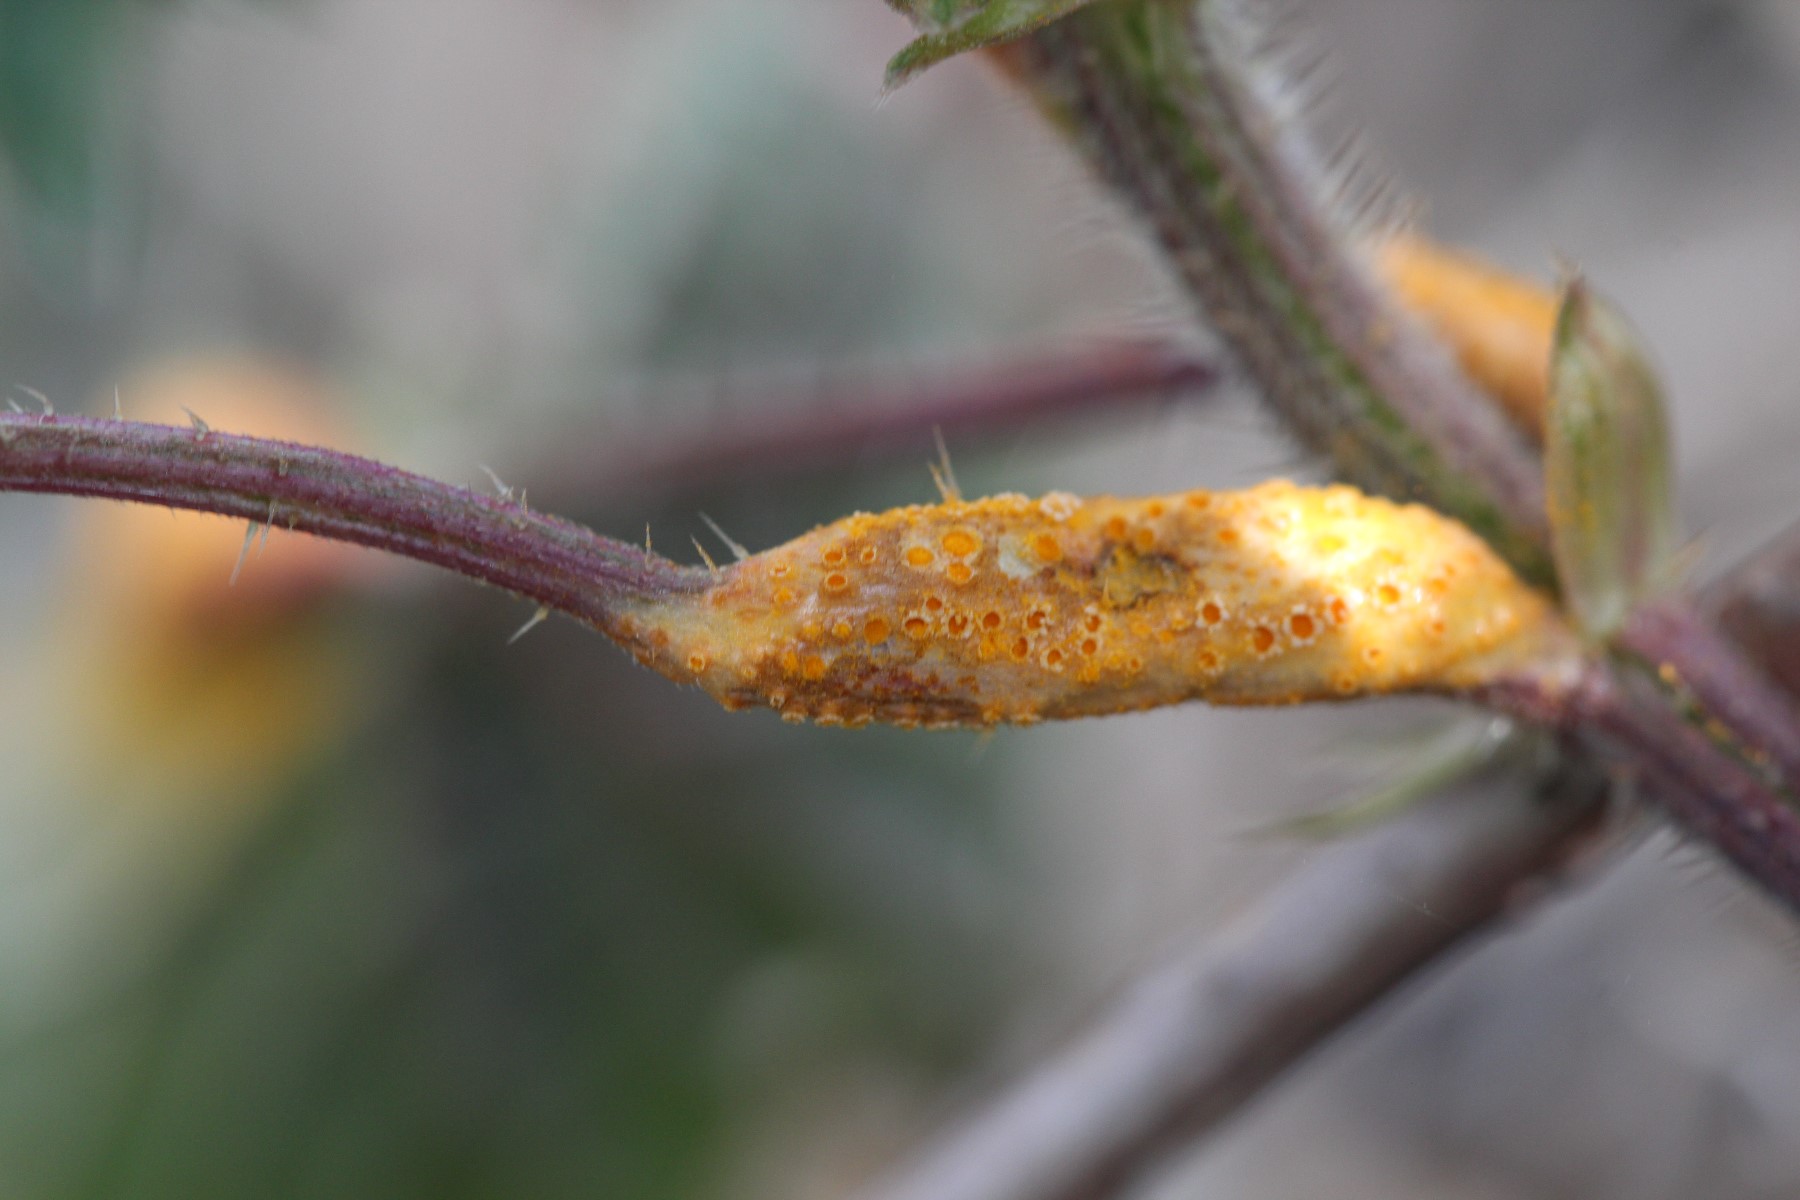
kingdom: Fungi
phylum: Basidiomycota
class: Pucciniomycetes
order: Pucciniales
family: Pucciniaceae
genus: Puccinia
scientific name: Puccinia urticata
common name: nældegalle-tvecellerust
